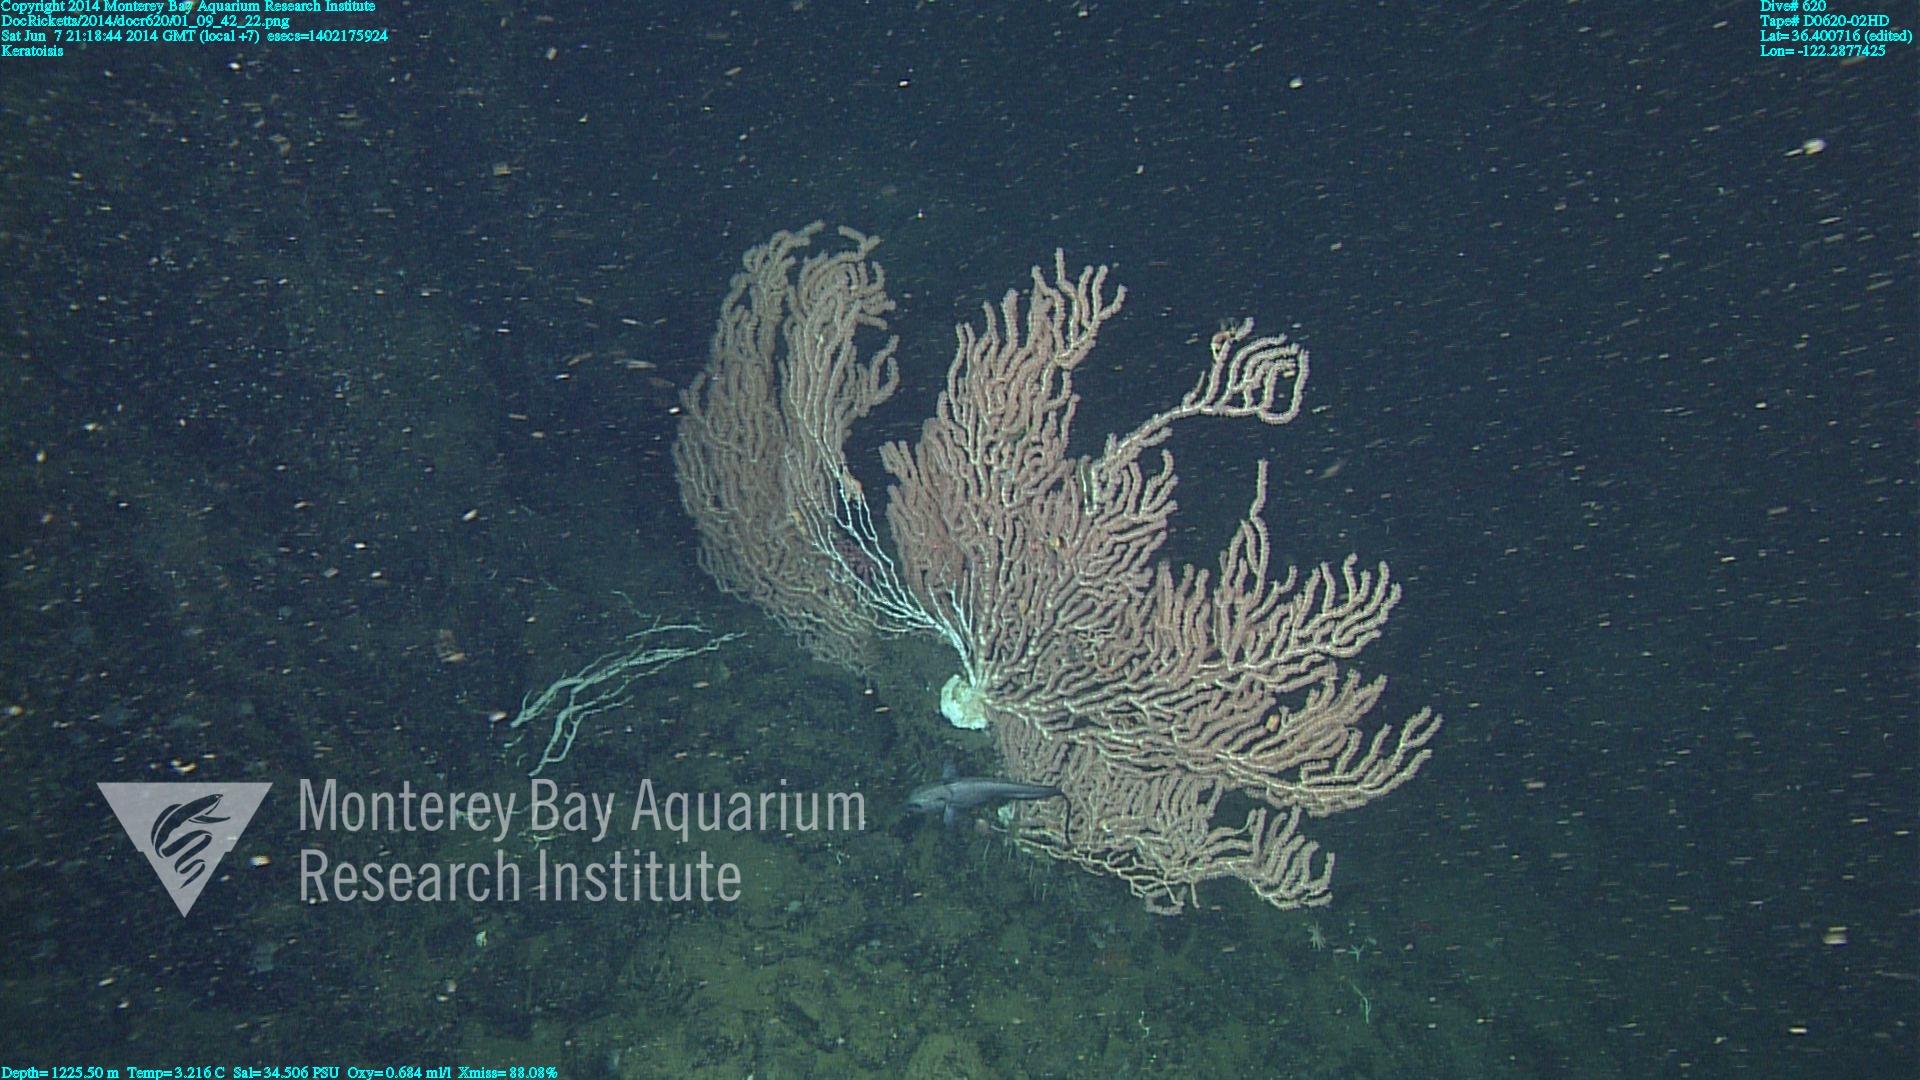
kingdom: Animalia
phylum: Cnidaria
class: Anthozoa
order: Scleralcyonacea
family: Keratoisididae
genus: Keratoisis
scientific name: Keratoisis
